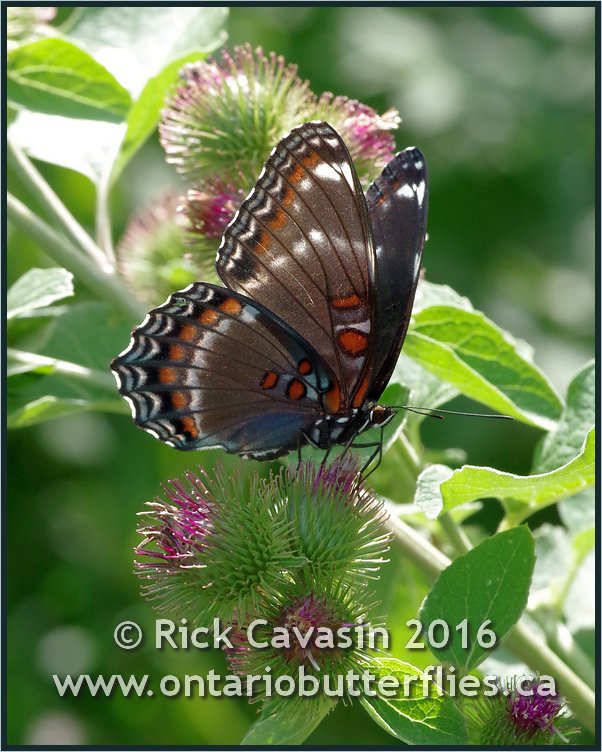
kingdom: Animalia
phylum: Arthropoda
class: Insecta
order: Lepidoptera
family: Nymphalidae
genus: Limenitis
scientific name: Limenitis astyanax
